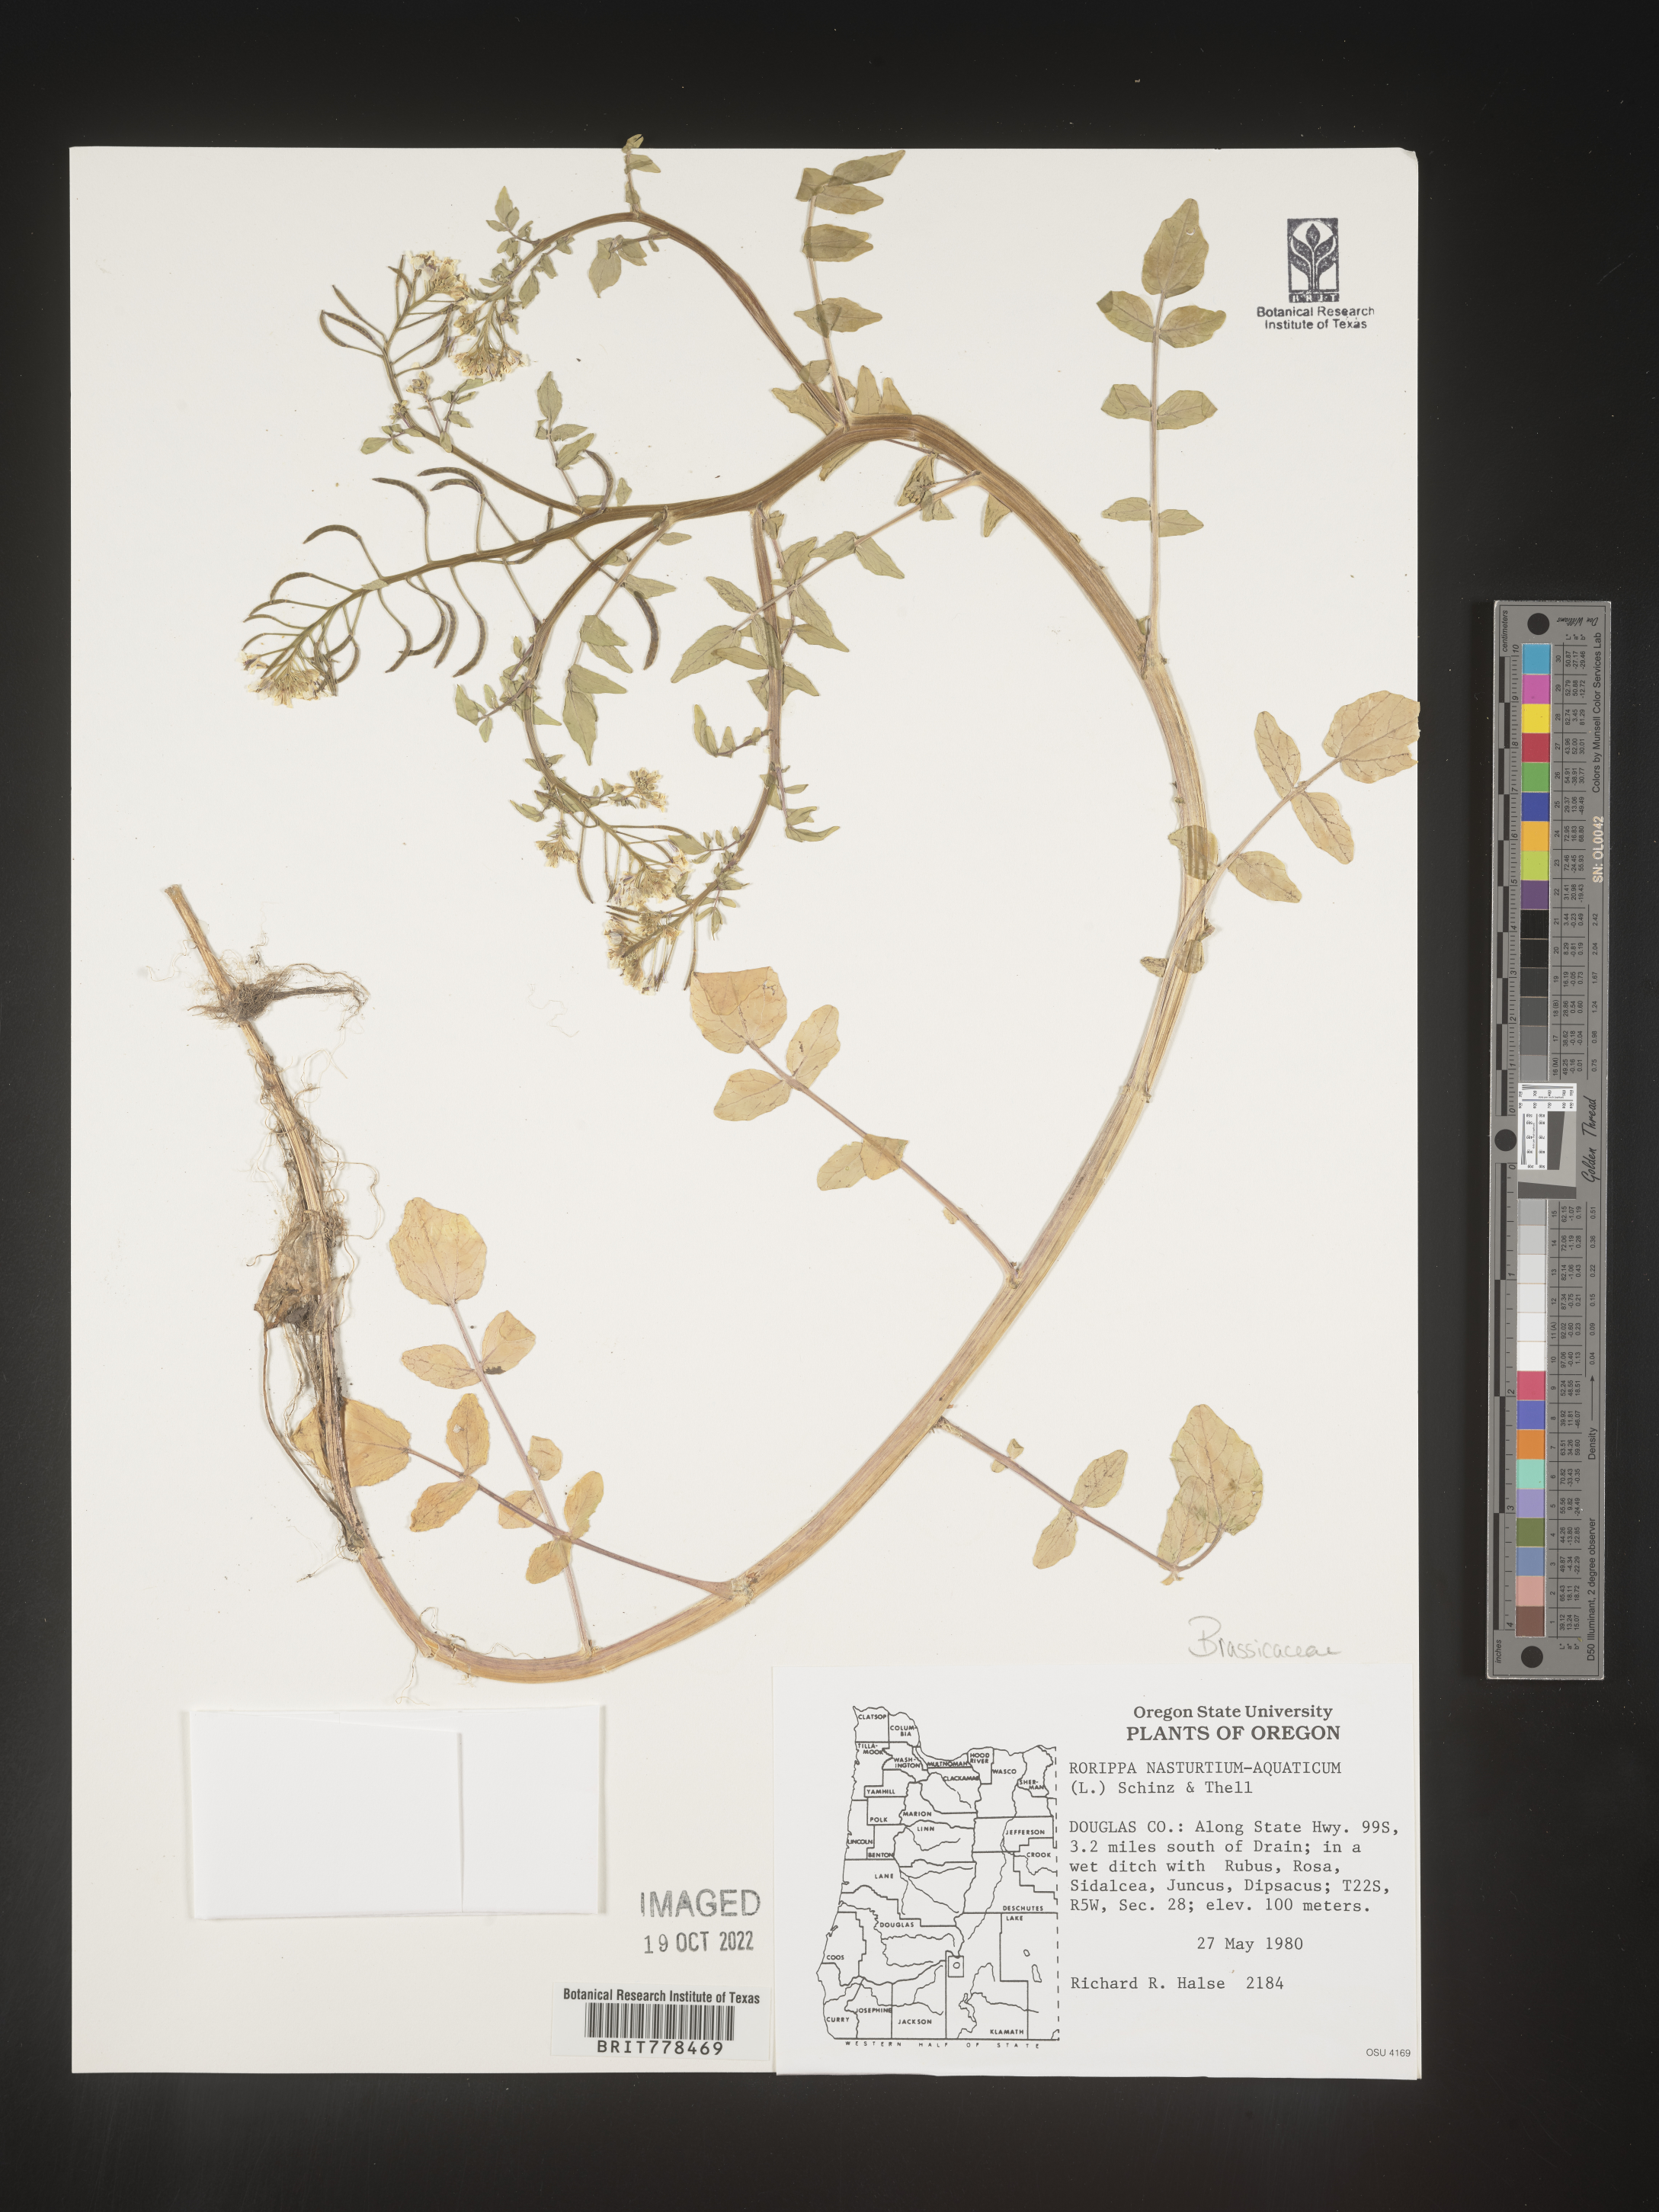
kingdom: Plantae
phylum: Tracheophyta
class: Magnoliopsida
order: Brassicales
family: Brassicaceae
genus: Nasturtium
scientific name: Nasturtium officinale
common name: Watercress
